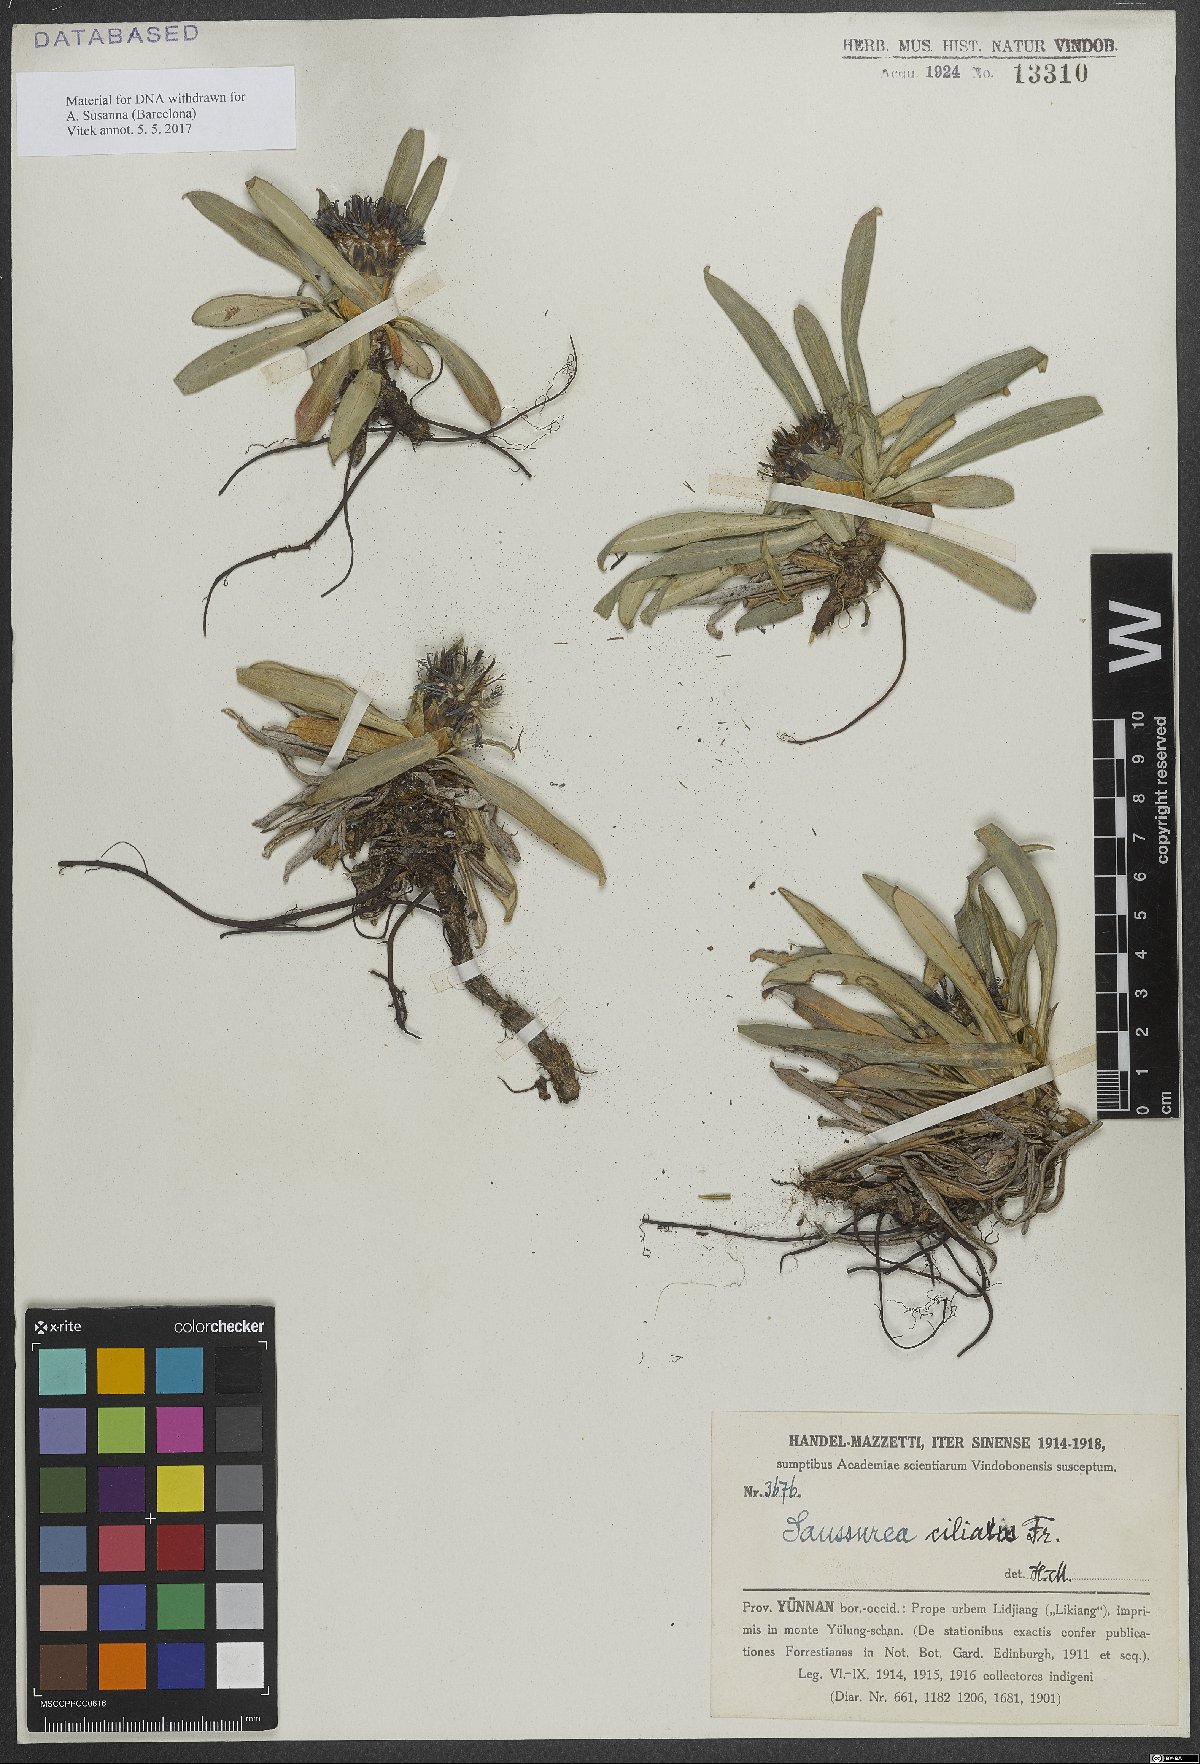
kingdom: Plantae
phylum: Tracheophyta
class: Magnoliopsida
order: Asterales
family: Asteraceae
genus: Saussurea
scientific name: Saussurea ciliaris
